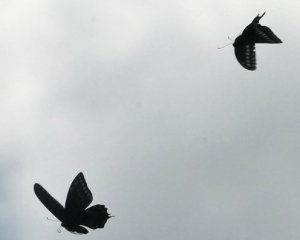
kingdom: Animalia
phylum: Arthropoda
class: Insecta
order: Lepidoptera
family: Papilionidae
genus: Papilio
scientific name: Papilio polyxenes
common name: Black Swallowtail
